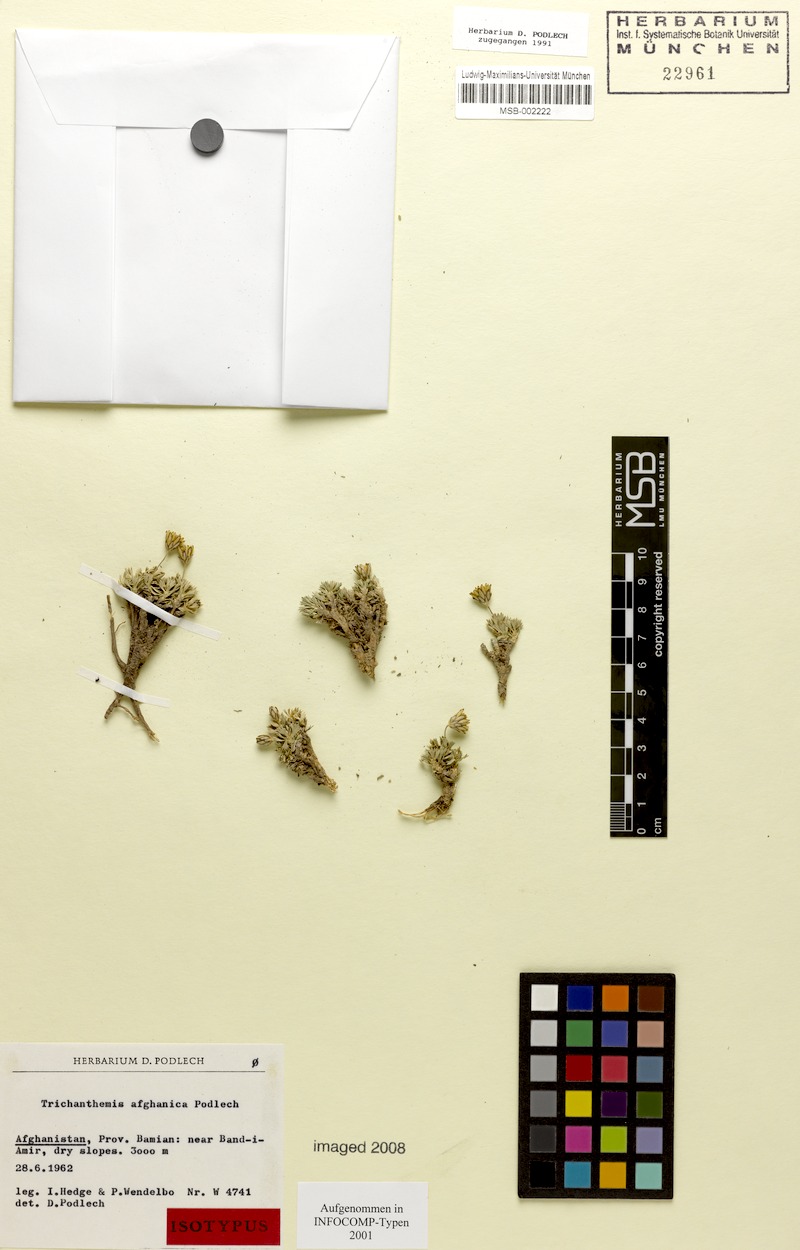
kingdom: Plantae
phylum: Tracheophyta
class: Magnoliopsida
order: Asterales
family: Asteraceae
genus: Trichanthemis
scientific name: Trichanthemis afghanica
